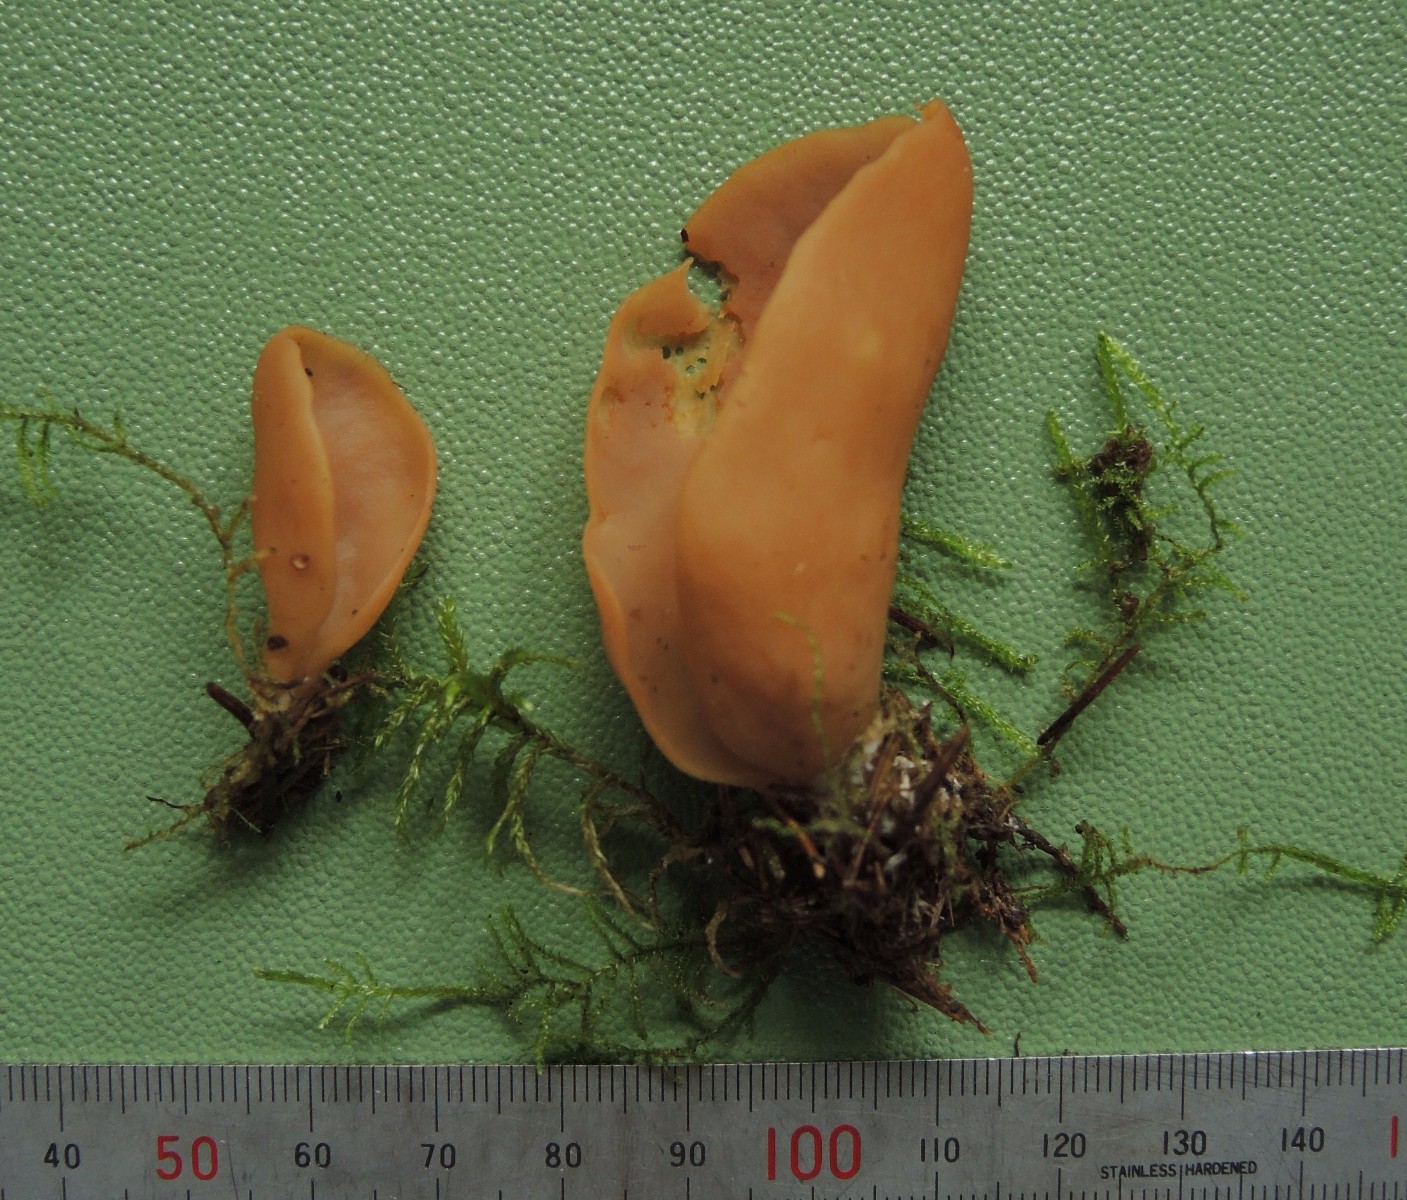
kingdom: Fungi
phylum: Ascomycota
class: Pezizomycetes
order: Pezizales
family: Otideaceae
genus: Otidea
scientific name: Otidea leporina
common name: hare-ørebæger
